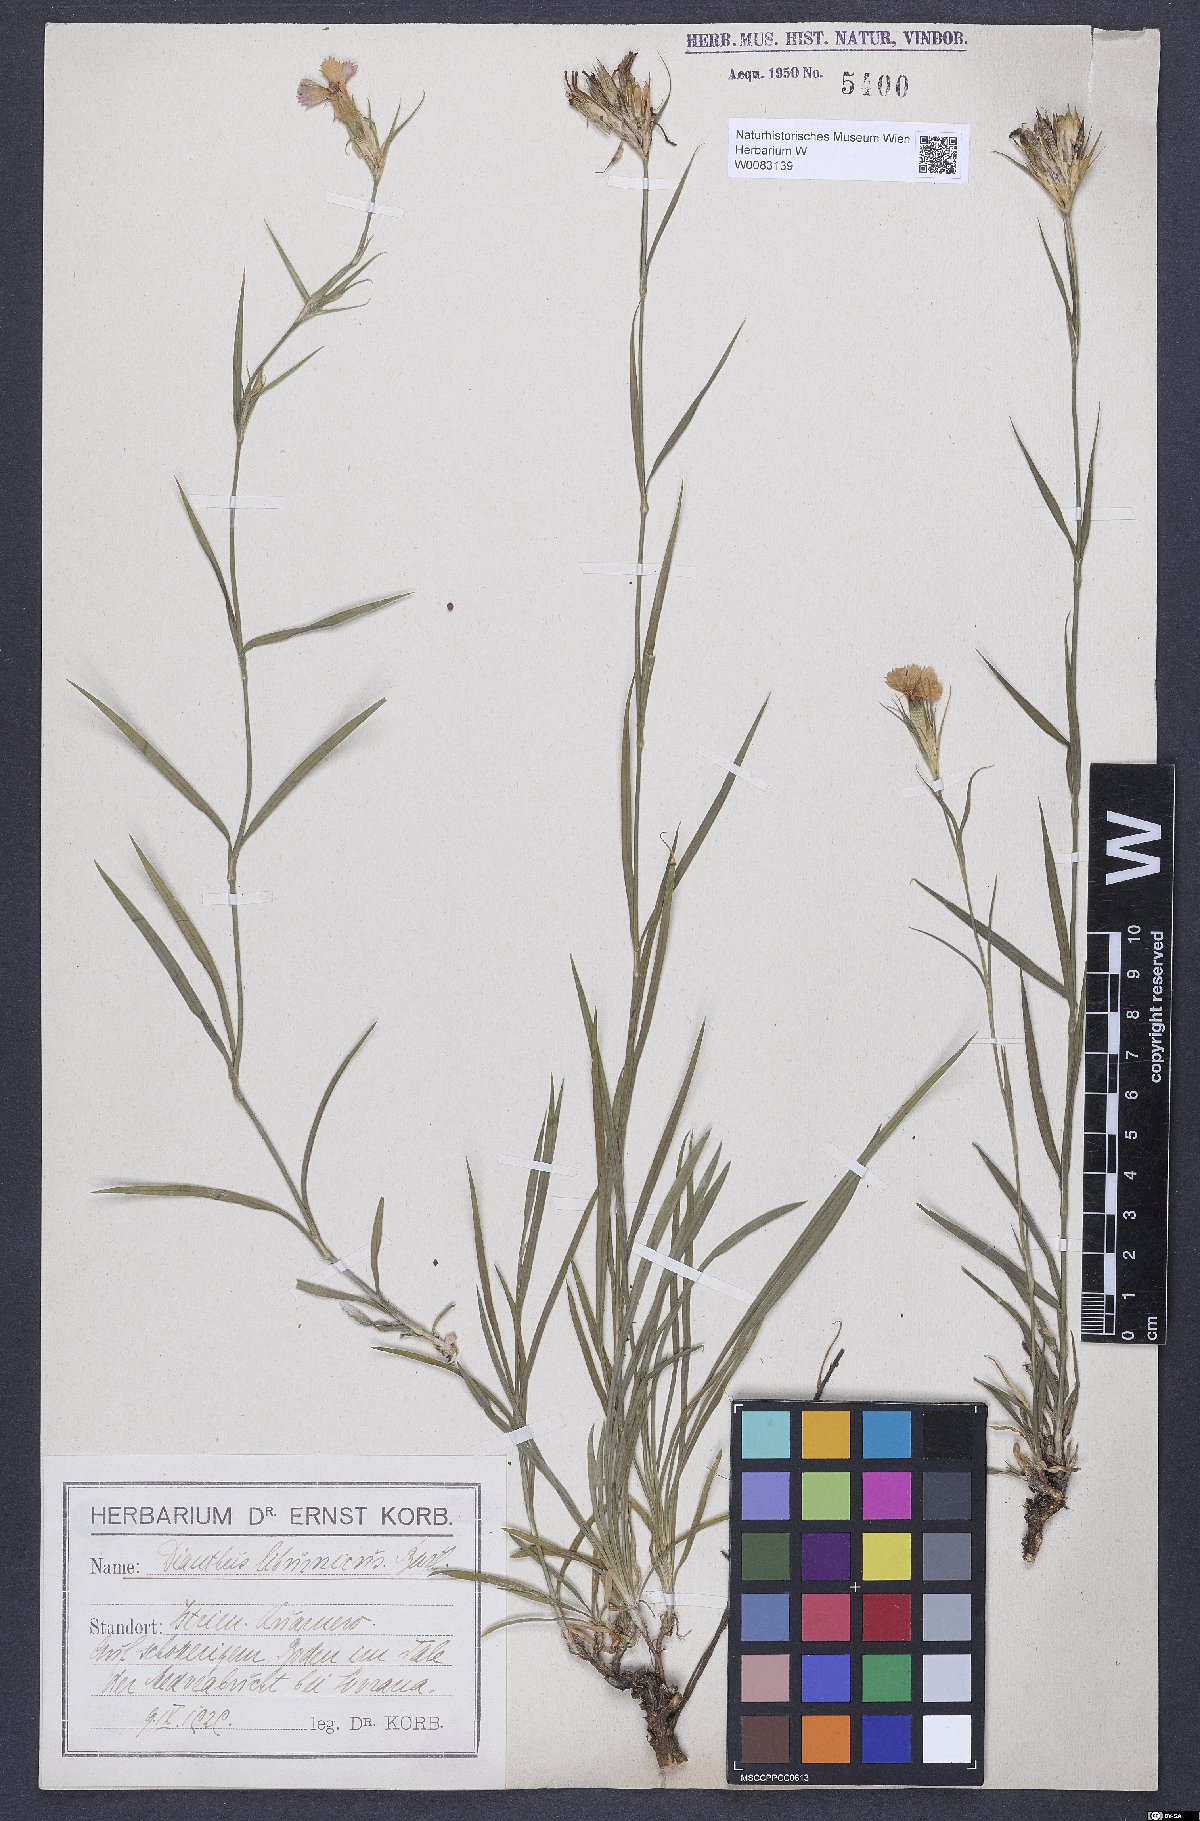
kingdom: Plantae
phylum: Tracheophyta
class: Magnoliopsida
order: Caryophyllales
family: Caryophyllaceae
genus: Dianthus
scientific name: Dianthus balbisii
